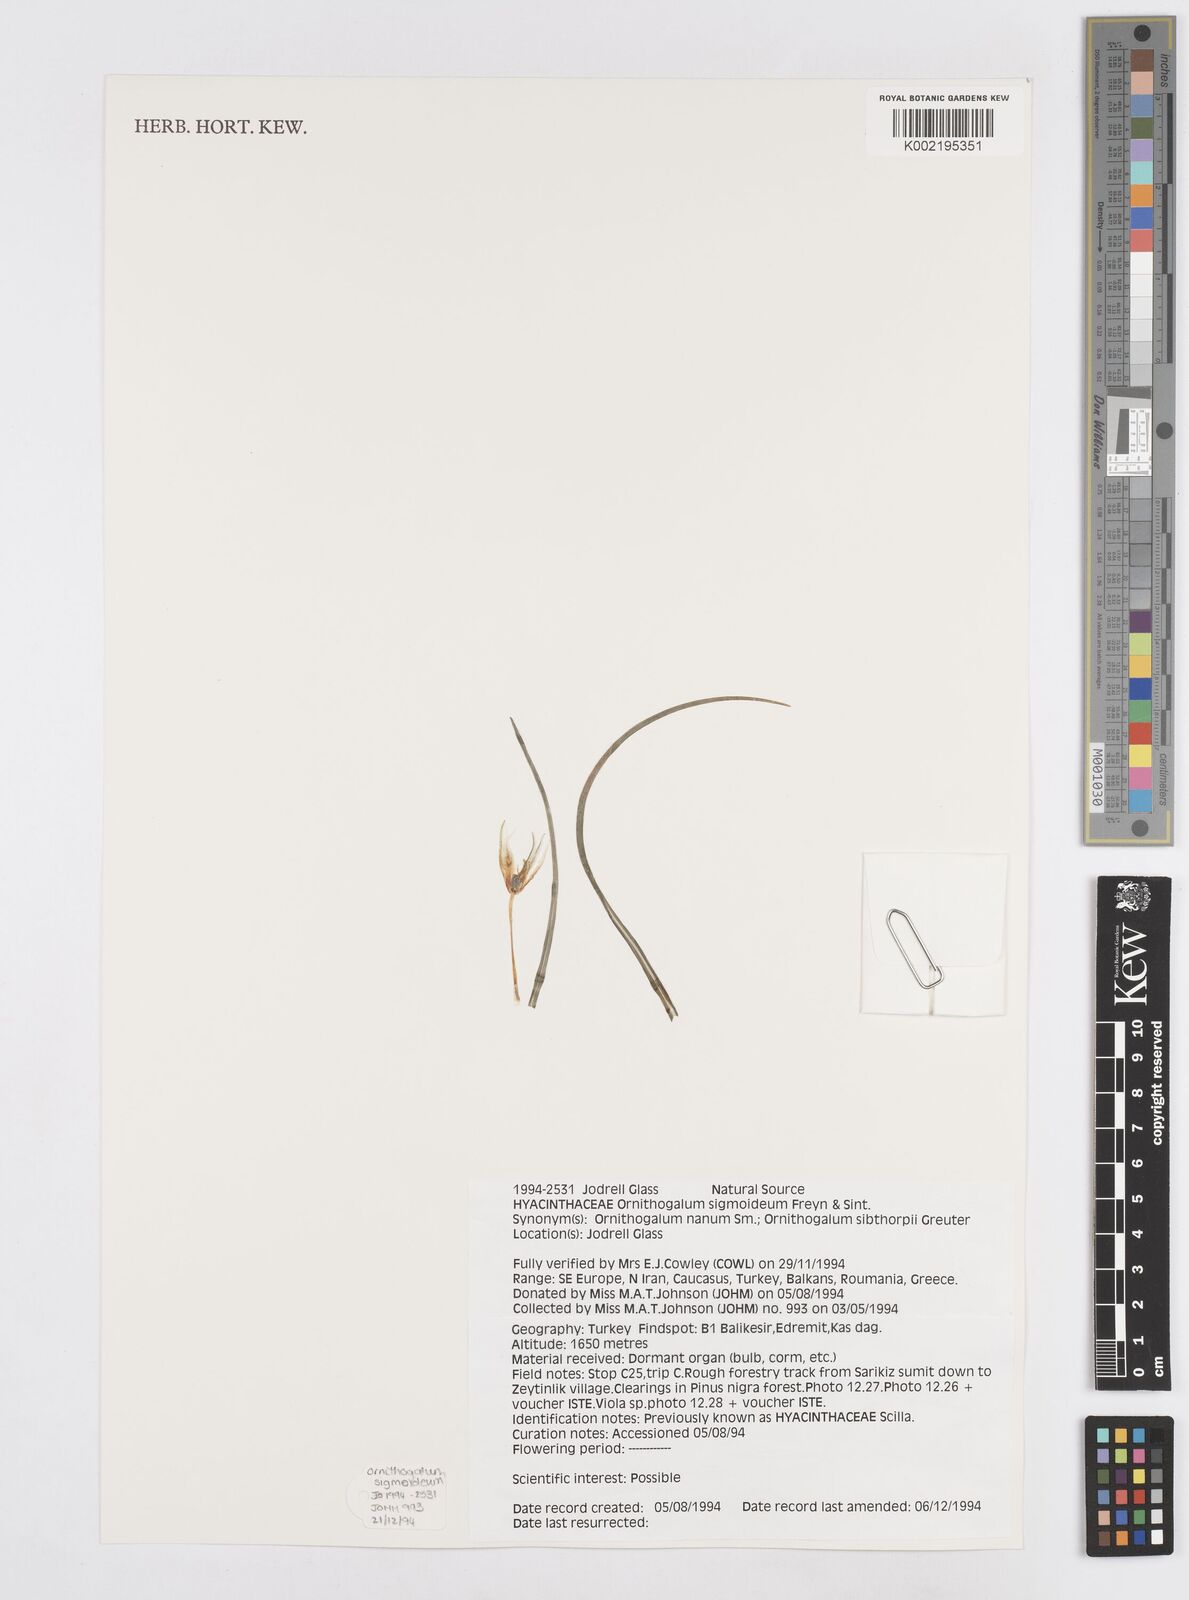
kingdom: Plantae
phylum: Tracheophyta
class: Liliopsida
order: Asparagales
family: Asparagaceae
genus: Ornithogalum
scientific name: Ornithogalum sigmoideum
